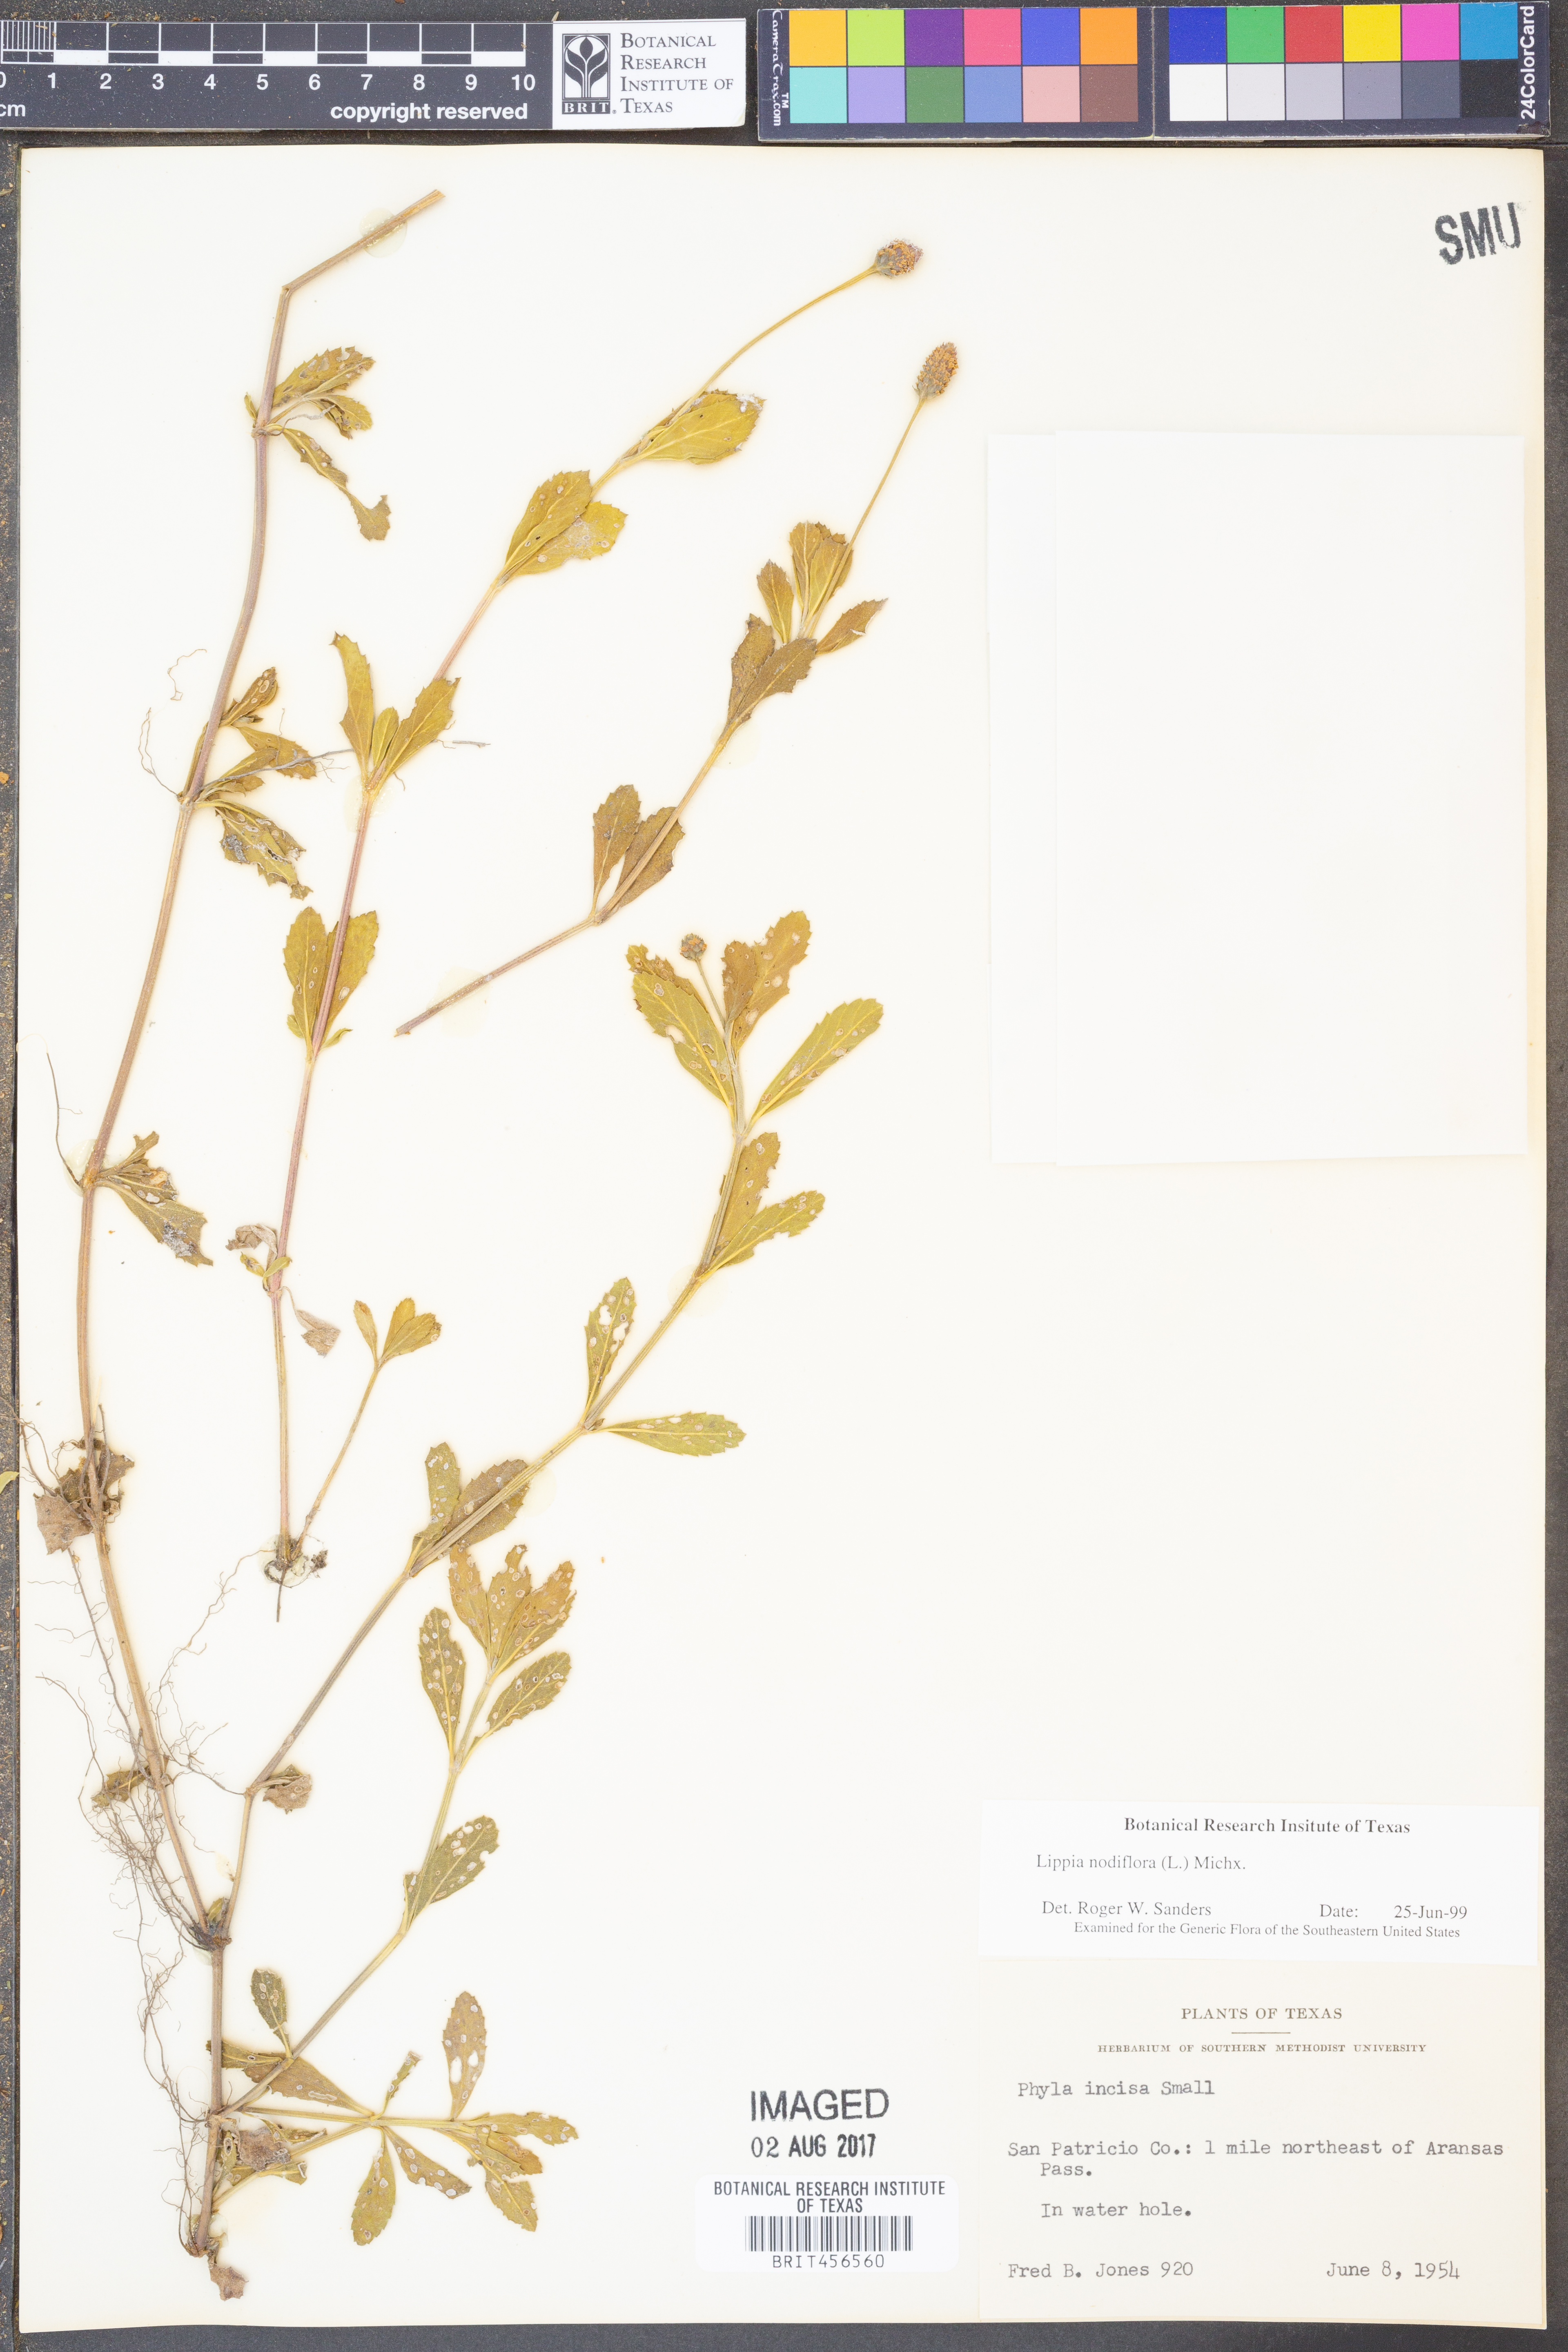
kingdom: Plantae
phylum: Tracheophyta
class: Magnoliopsida
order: Lamiales
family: Verbenaceae
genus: Phyla
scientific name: Phyla nodiflora
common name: Frogfruit
